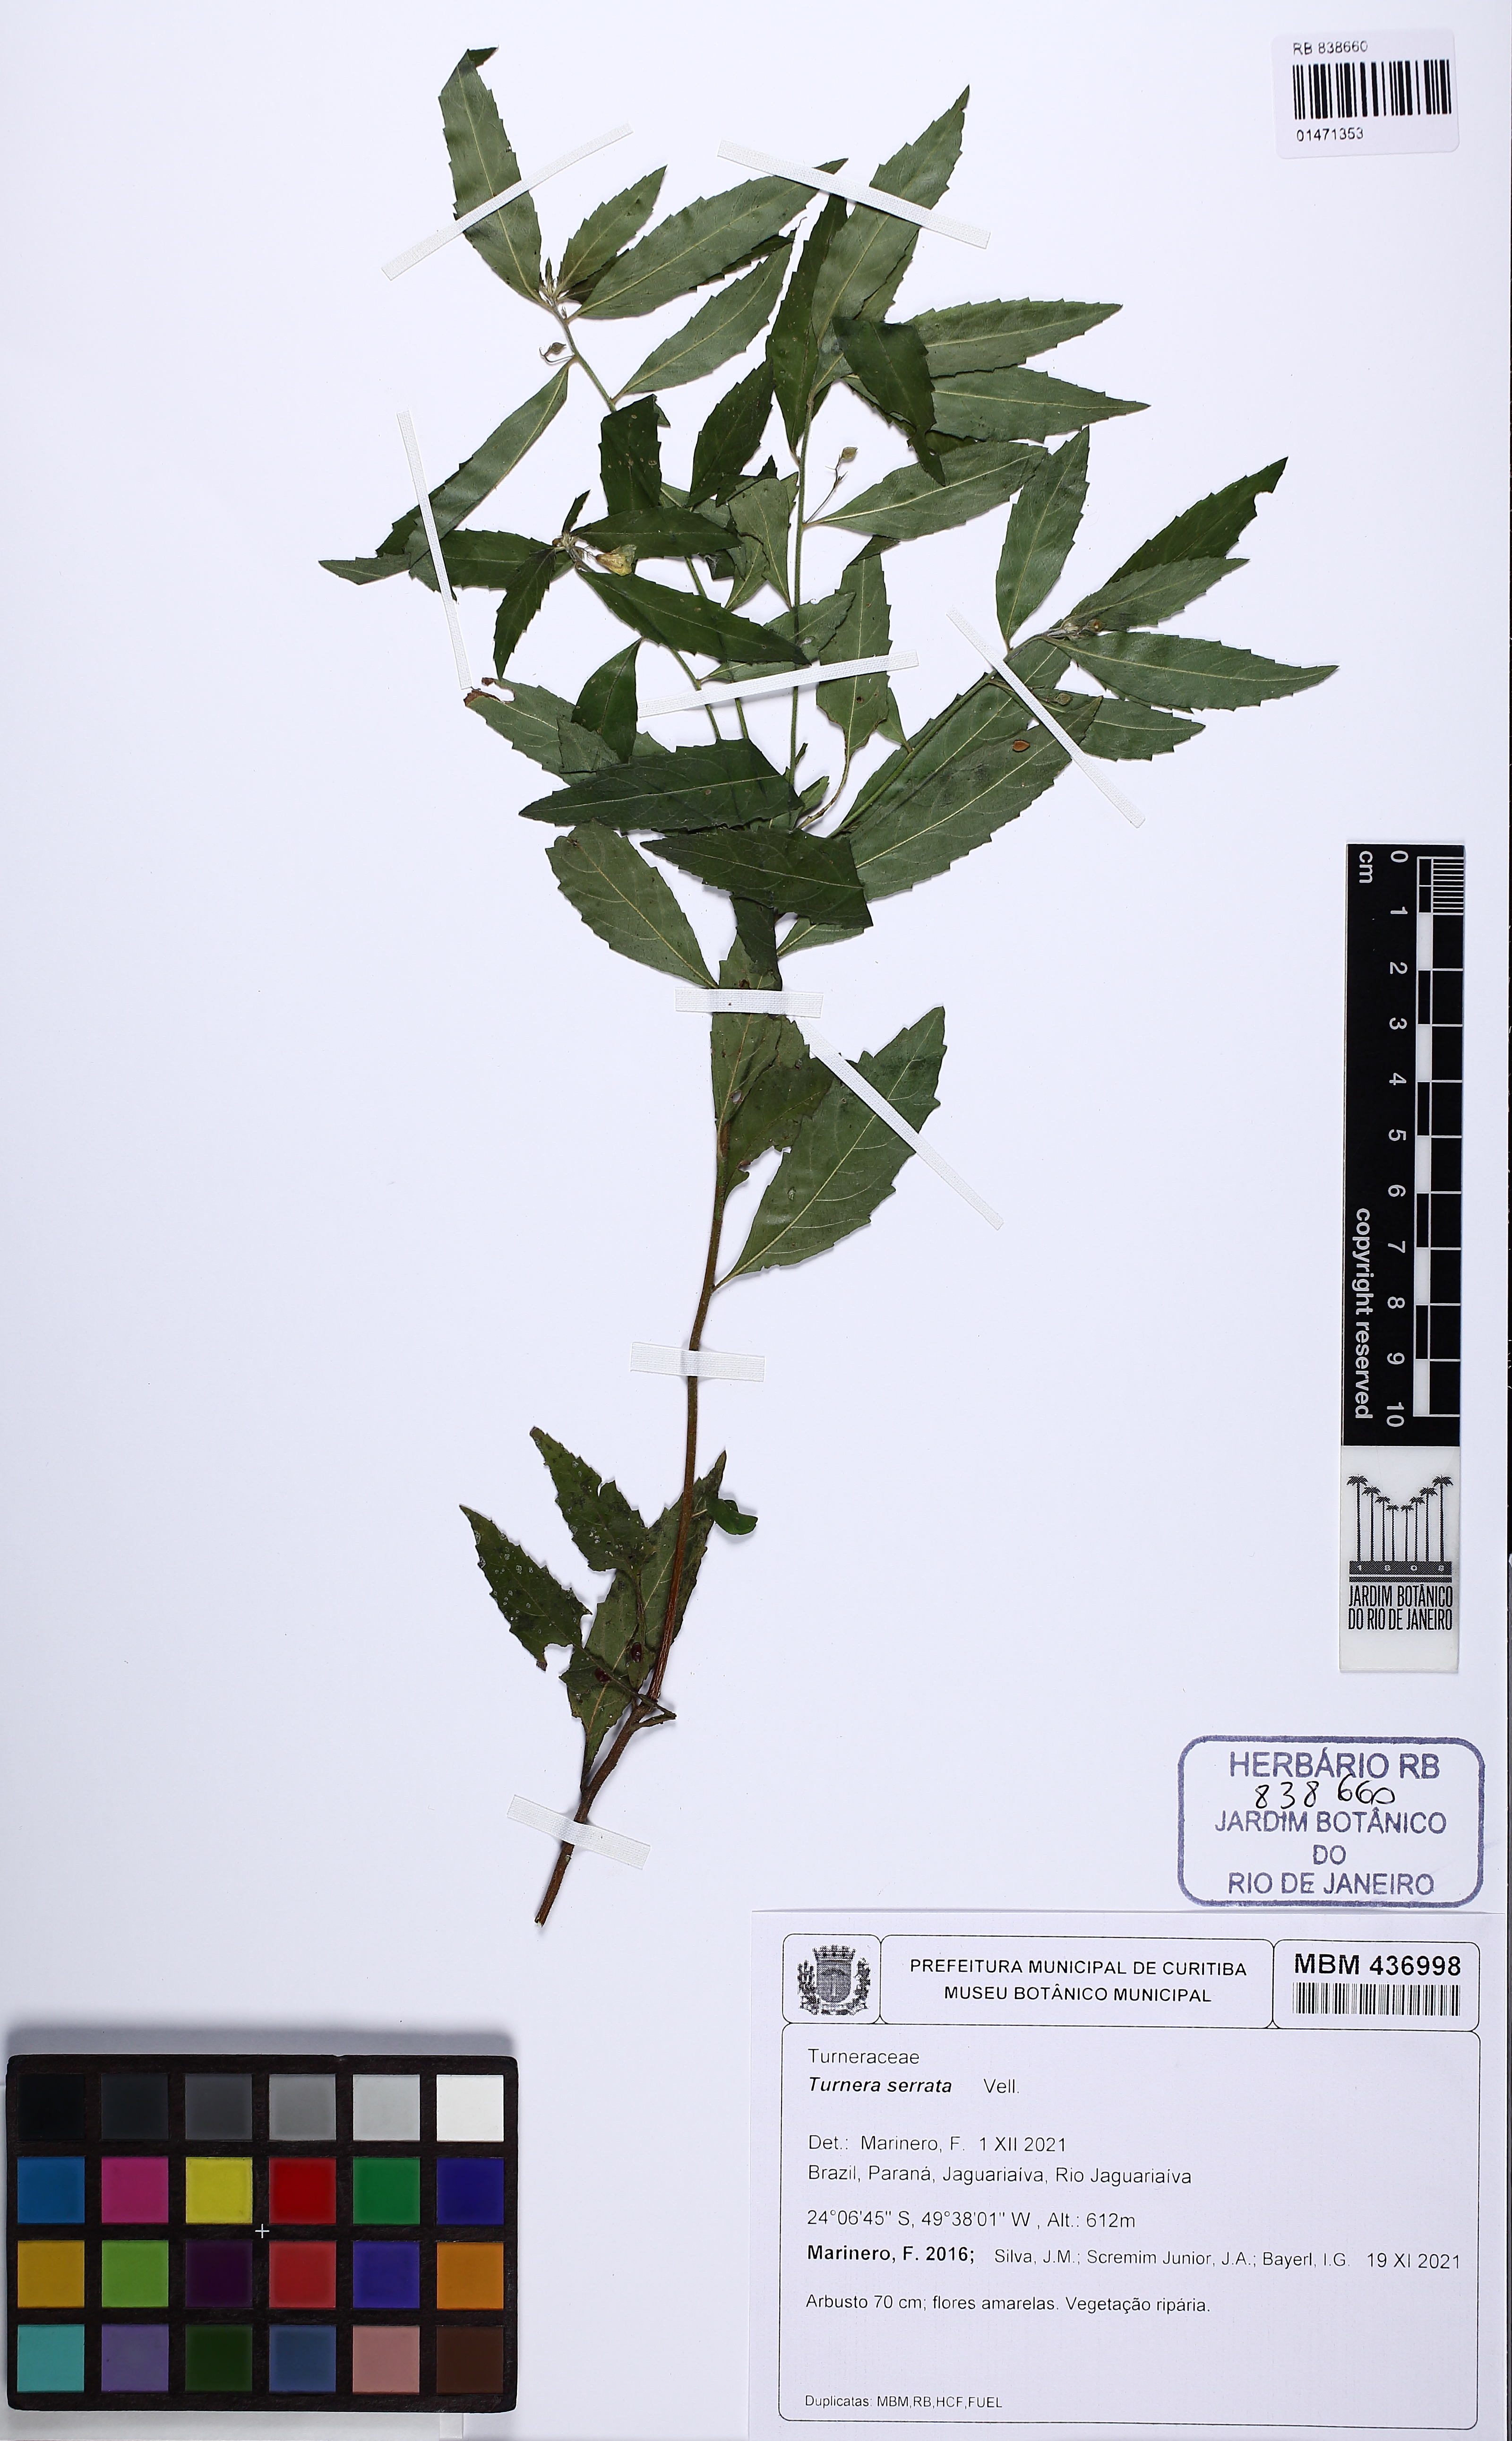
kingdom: Plantae
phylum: Tracheophyta
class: Magnoliopsida
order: Malpighiales
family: Turneraceae
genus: Turnera
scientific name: Turnera serrata
